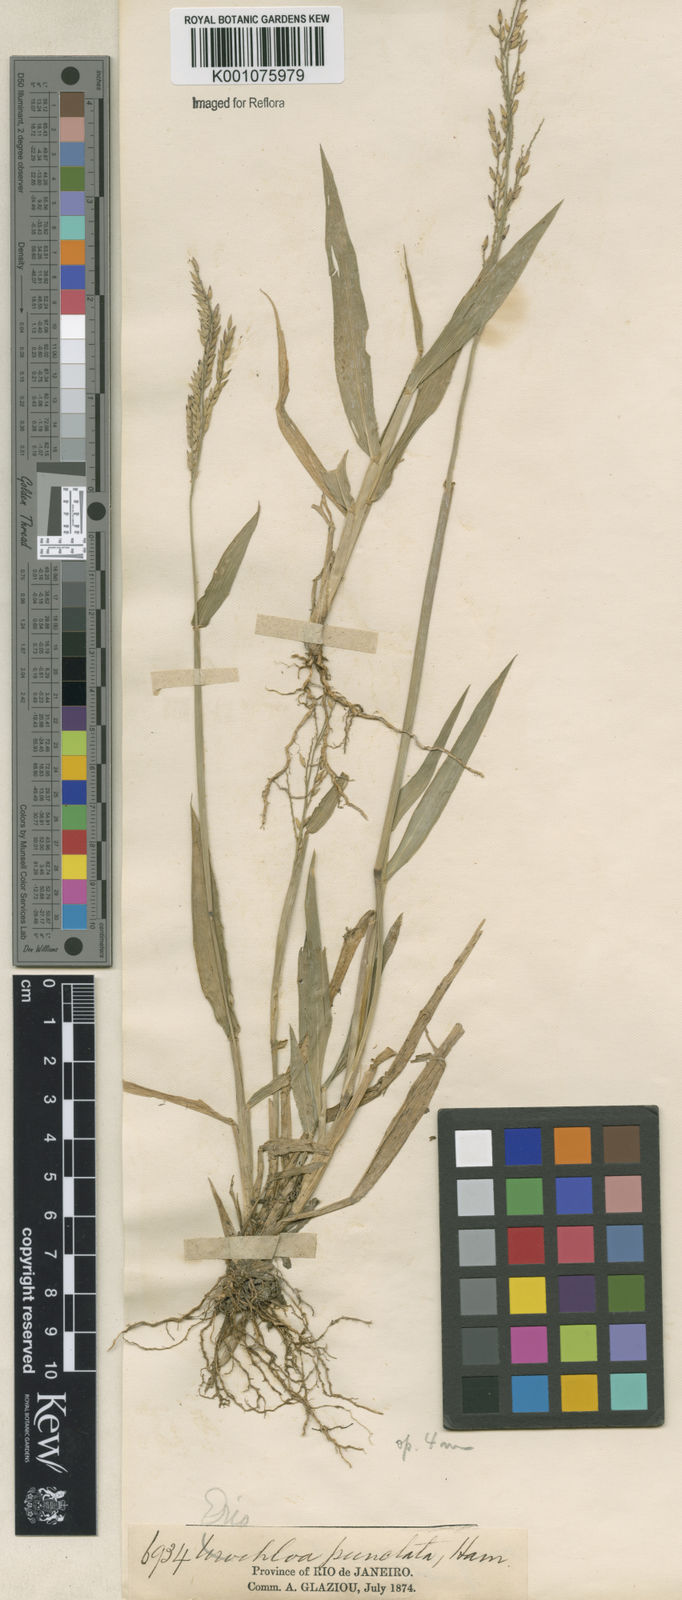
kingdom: Plantae
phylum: Tracheophyta
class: Liliopsida
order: Poales
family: Poaceae
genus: Eriochloa
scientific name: Eriochloa punctata
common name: Louisiana cupgrass
